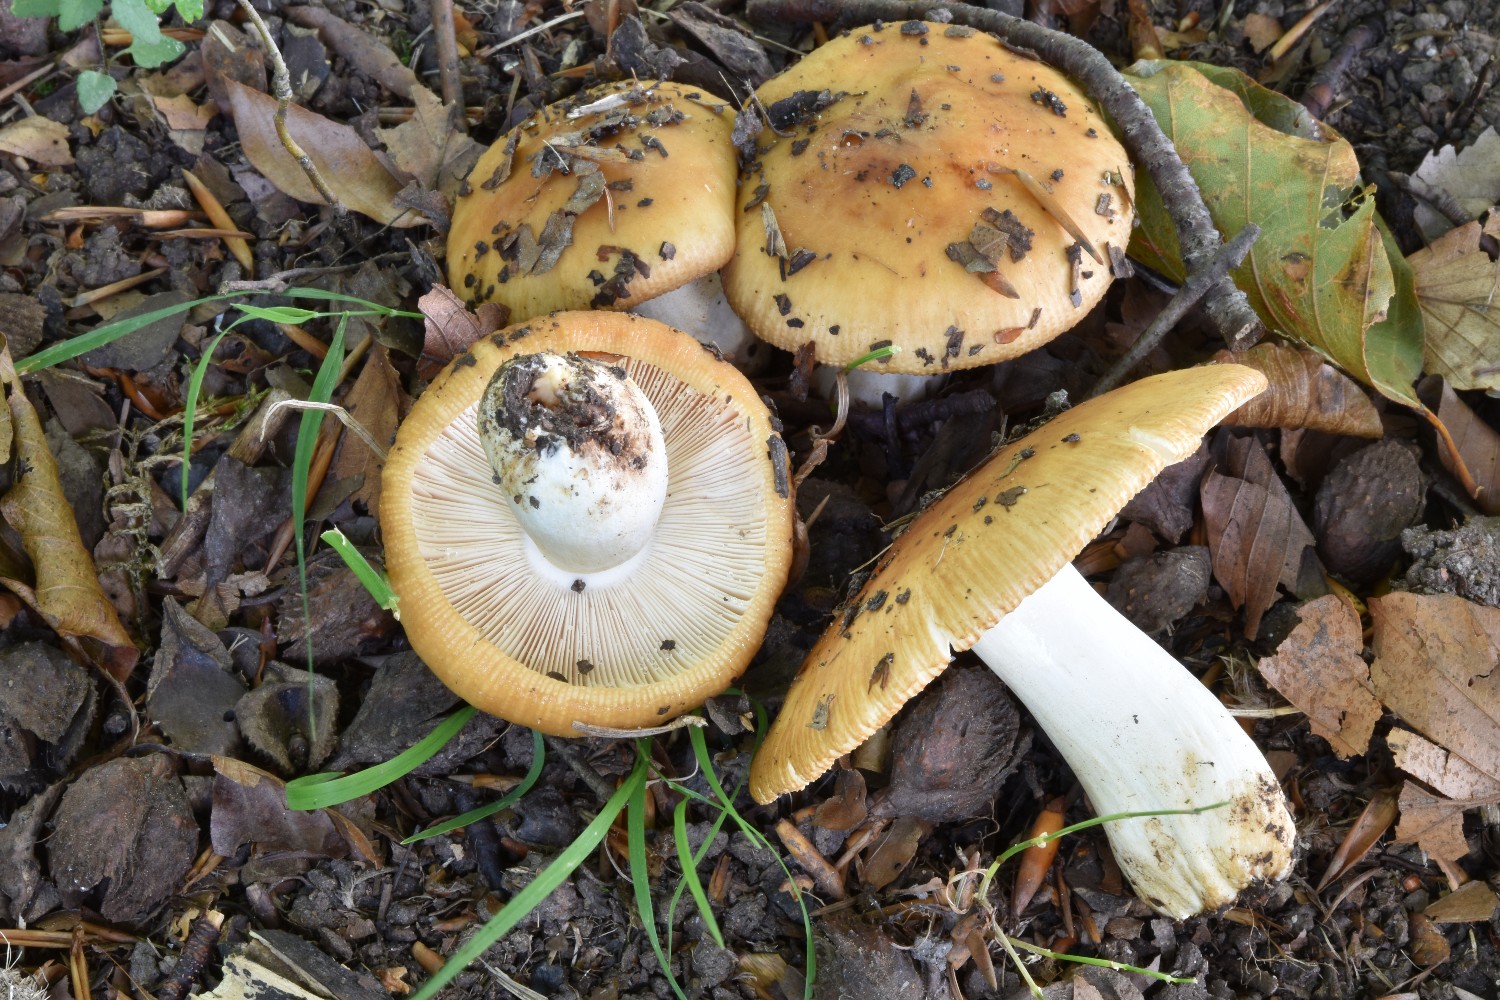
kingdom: Fungi
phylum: Basidiomycota
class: Agaricomycetes
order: Russulales
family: Russulaceae
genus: Russula
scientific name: Russula foetens
